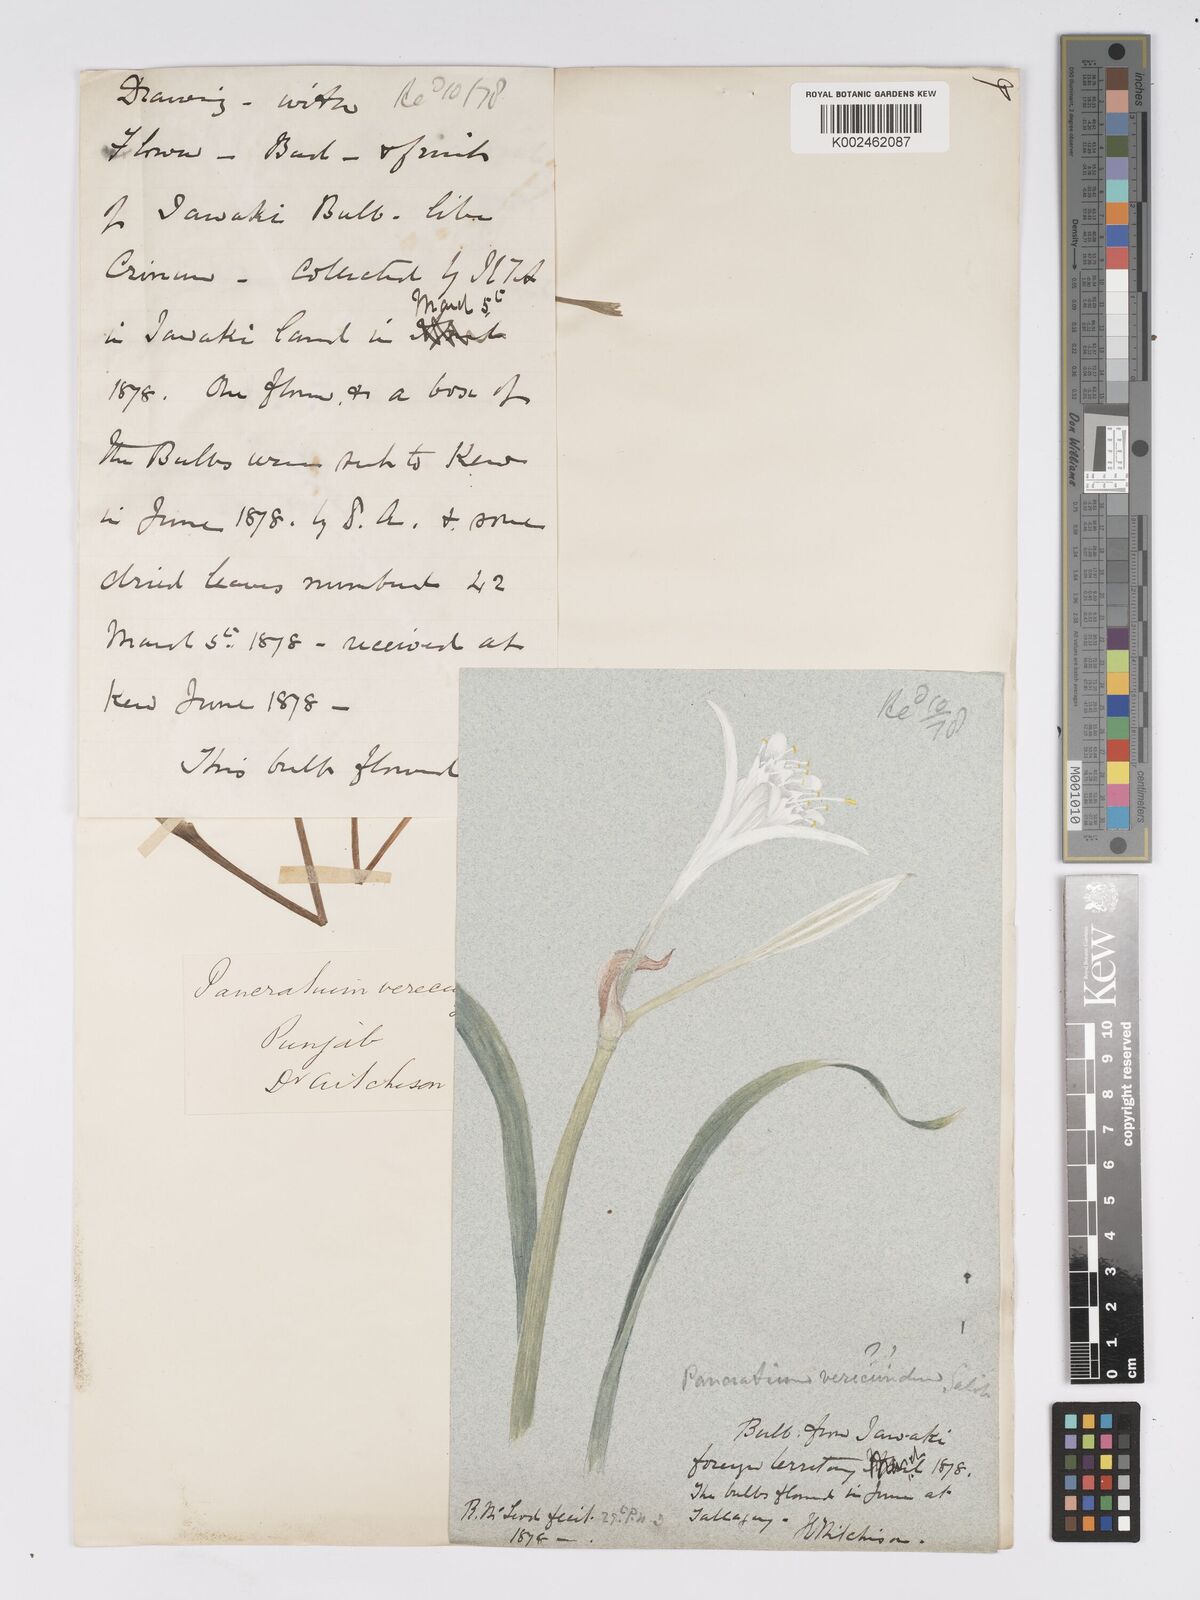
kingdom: Plantae
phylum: Tracheophyta
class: Liliopsida
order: Asparagales
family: Amaryllidaceae
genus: Pancratium
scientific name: Pancratium triflorum
